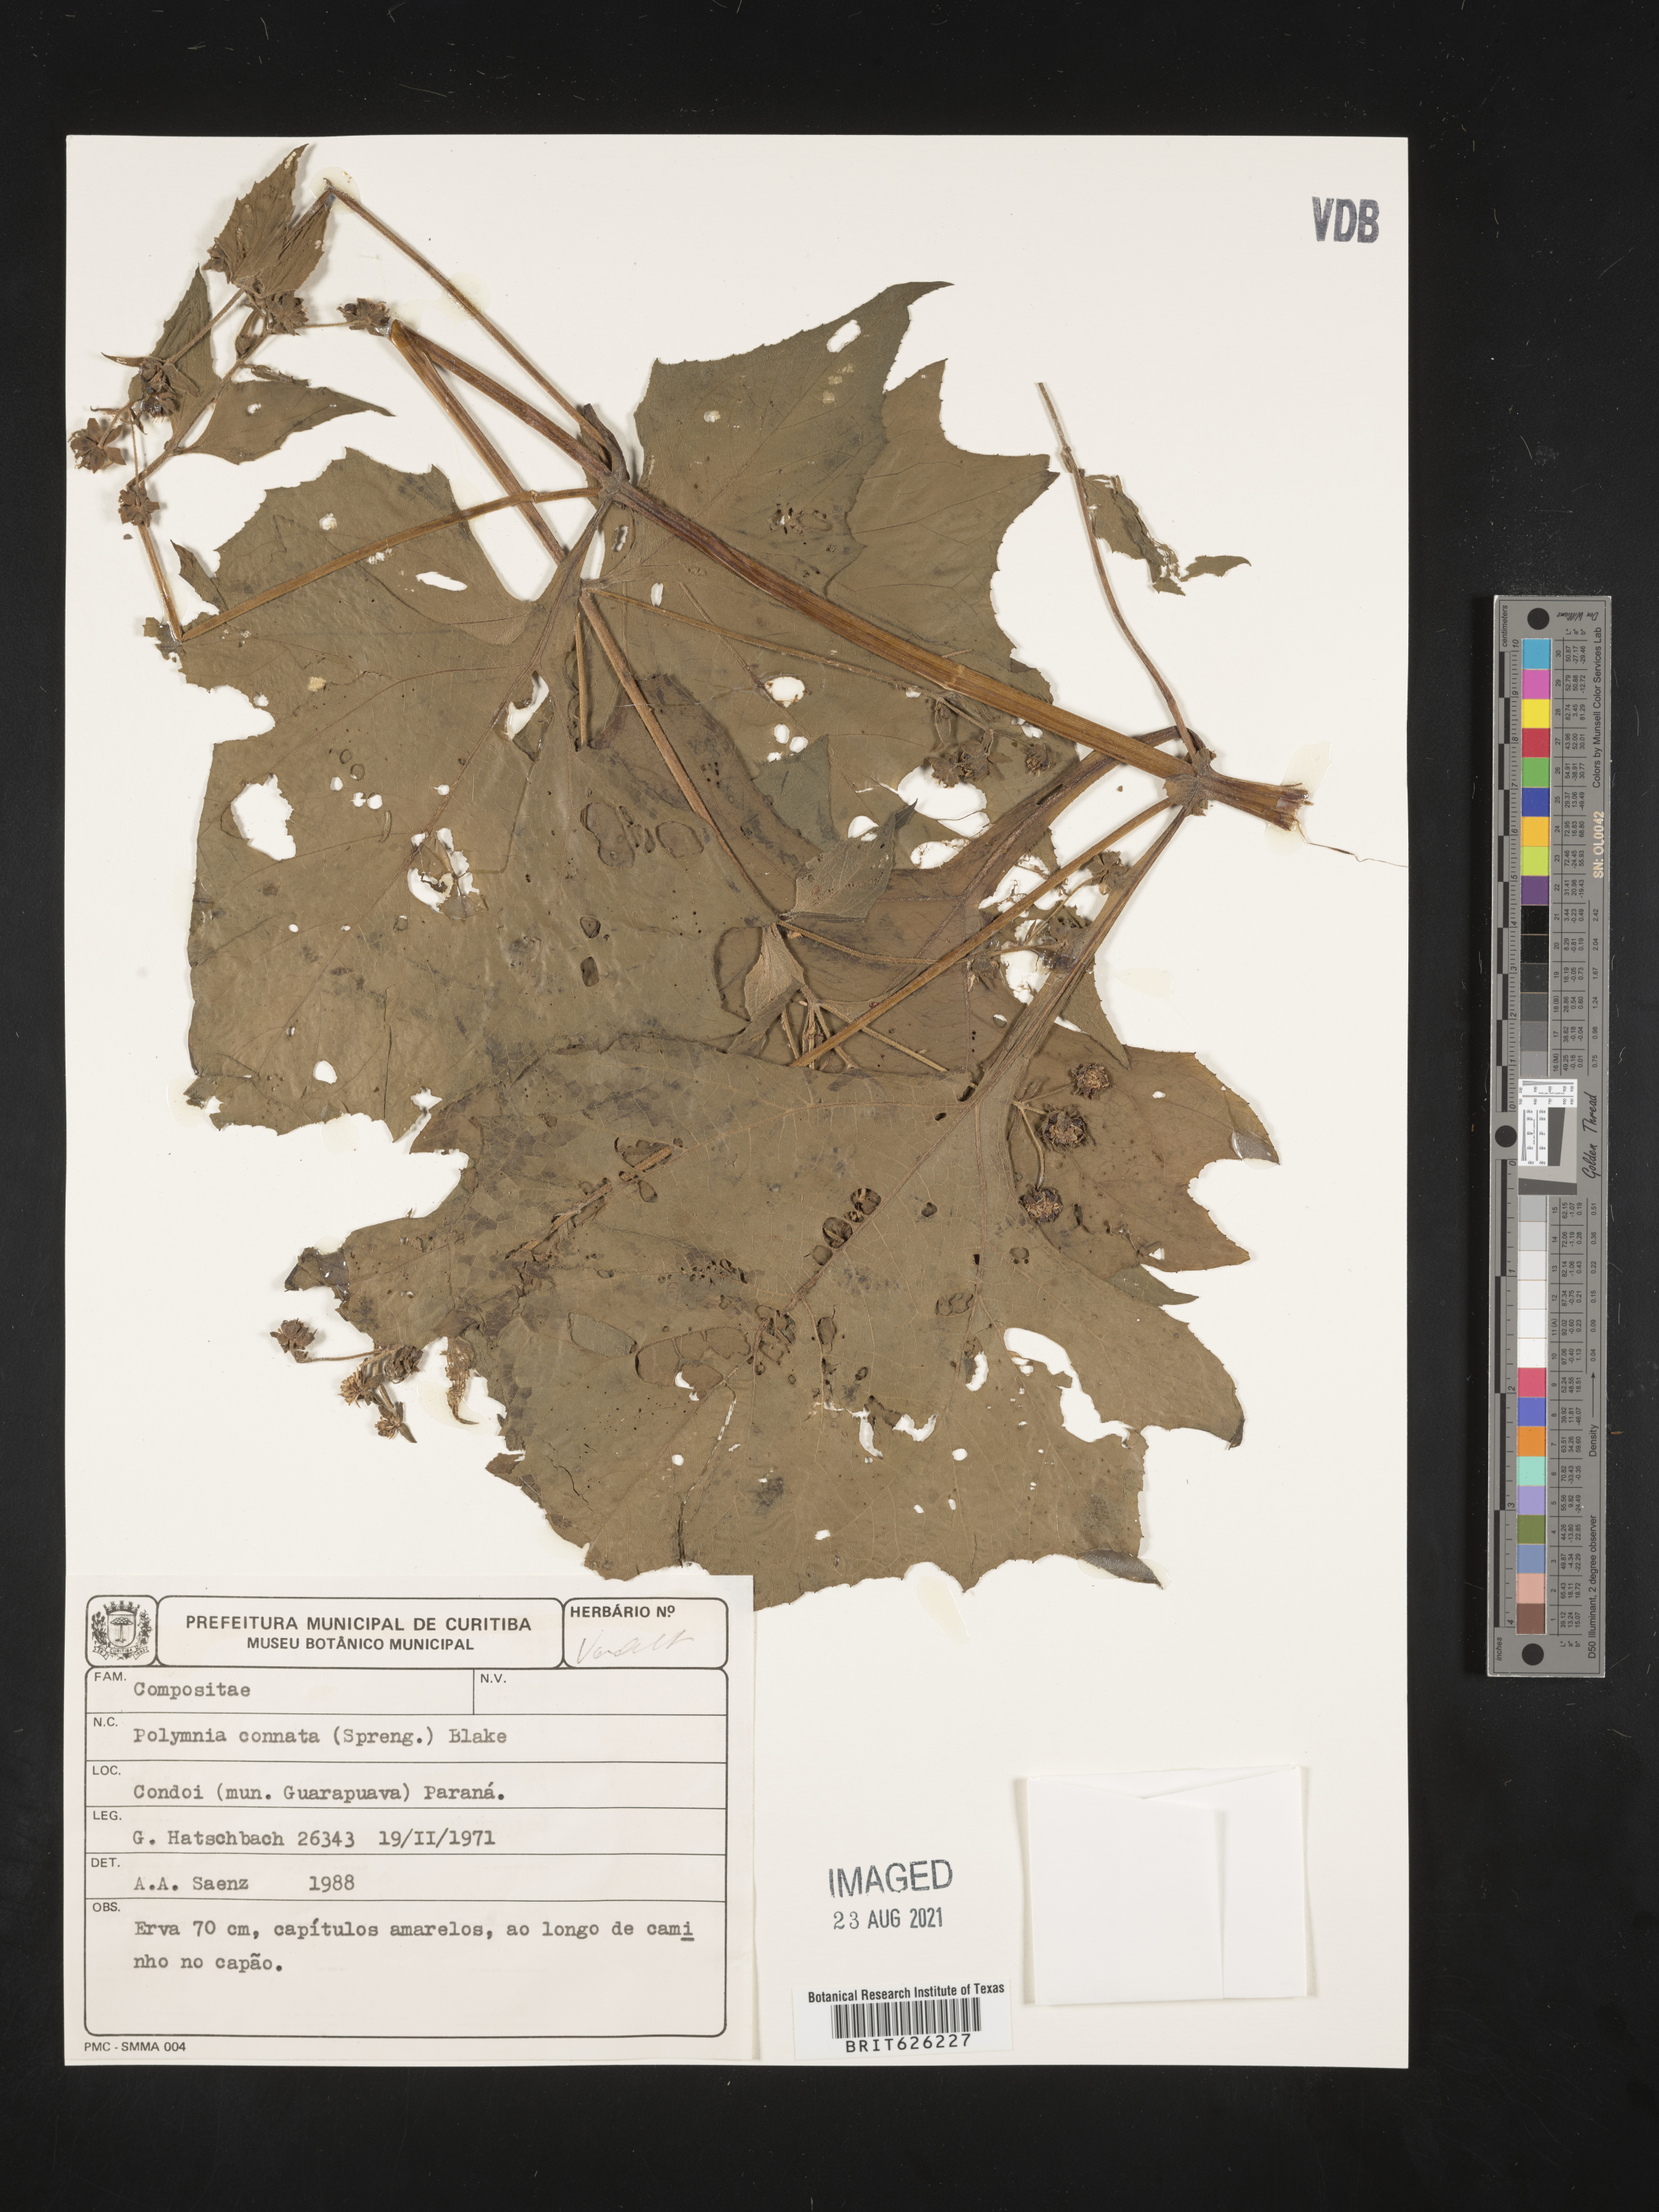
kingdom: Plantae
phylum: Tracheophyta
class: Magnoliopsida
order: Asterales
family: Asteraceae
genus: Smallanthus
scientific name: Smallanthus connatus
